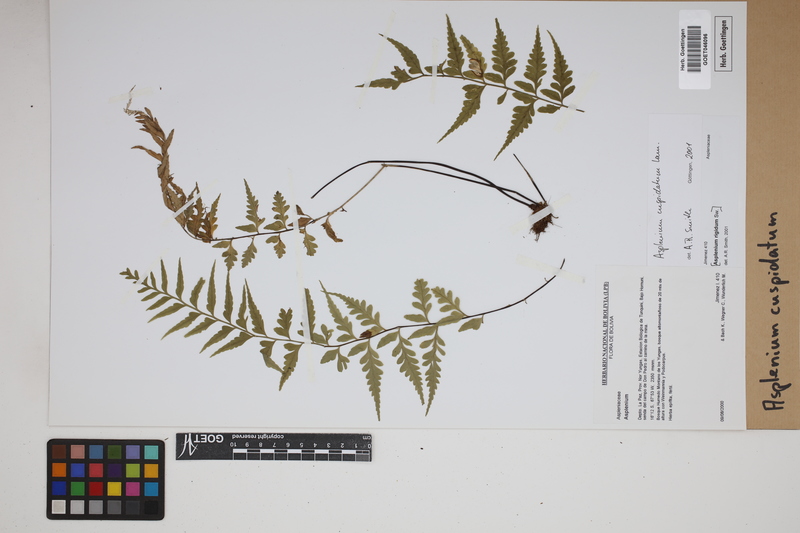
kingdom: Plantae
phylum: Tracheophyta
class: Polypodiopsida
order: Polypodiales
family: Aspleniaceae
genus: Asplenium
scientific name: Asplenium cuspidatum
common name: Eared spleenwort
